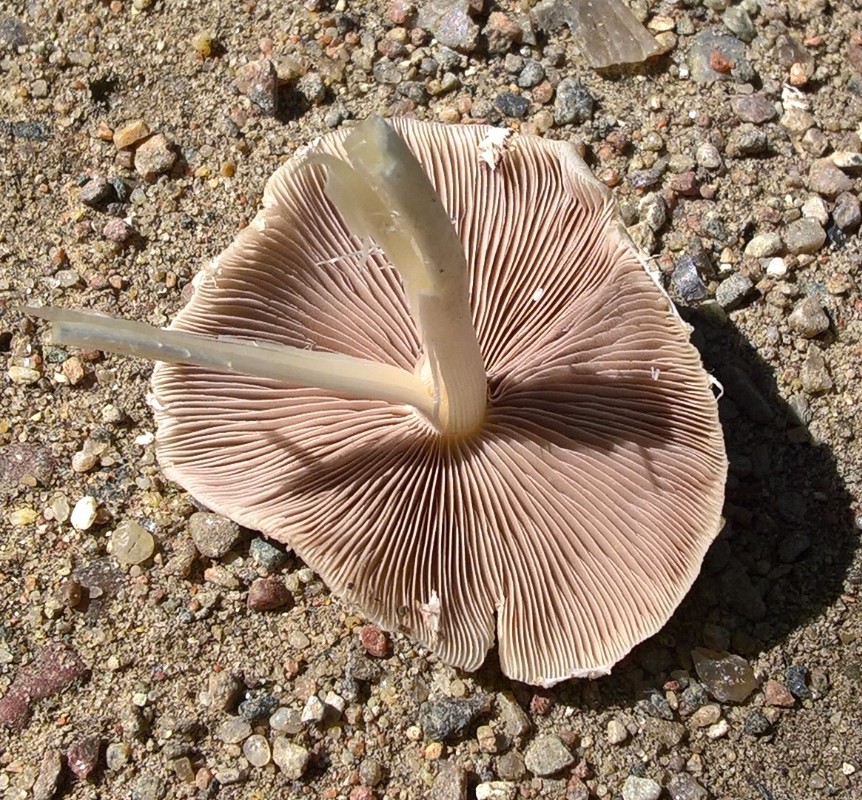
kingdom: Fungi
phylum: Basidiomycota
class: Agaricomycetes
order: Agaricales
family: Psathyrellaceae
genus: Candolleomyces
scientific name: Candolleomyces candolleanus
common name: Candolles mørkhat
